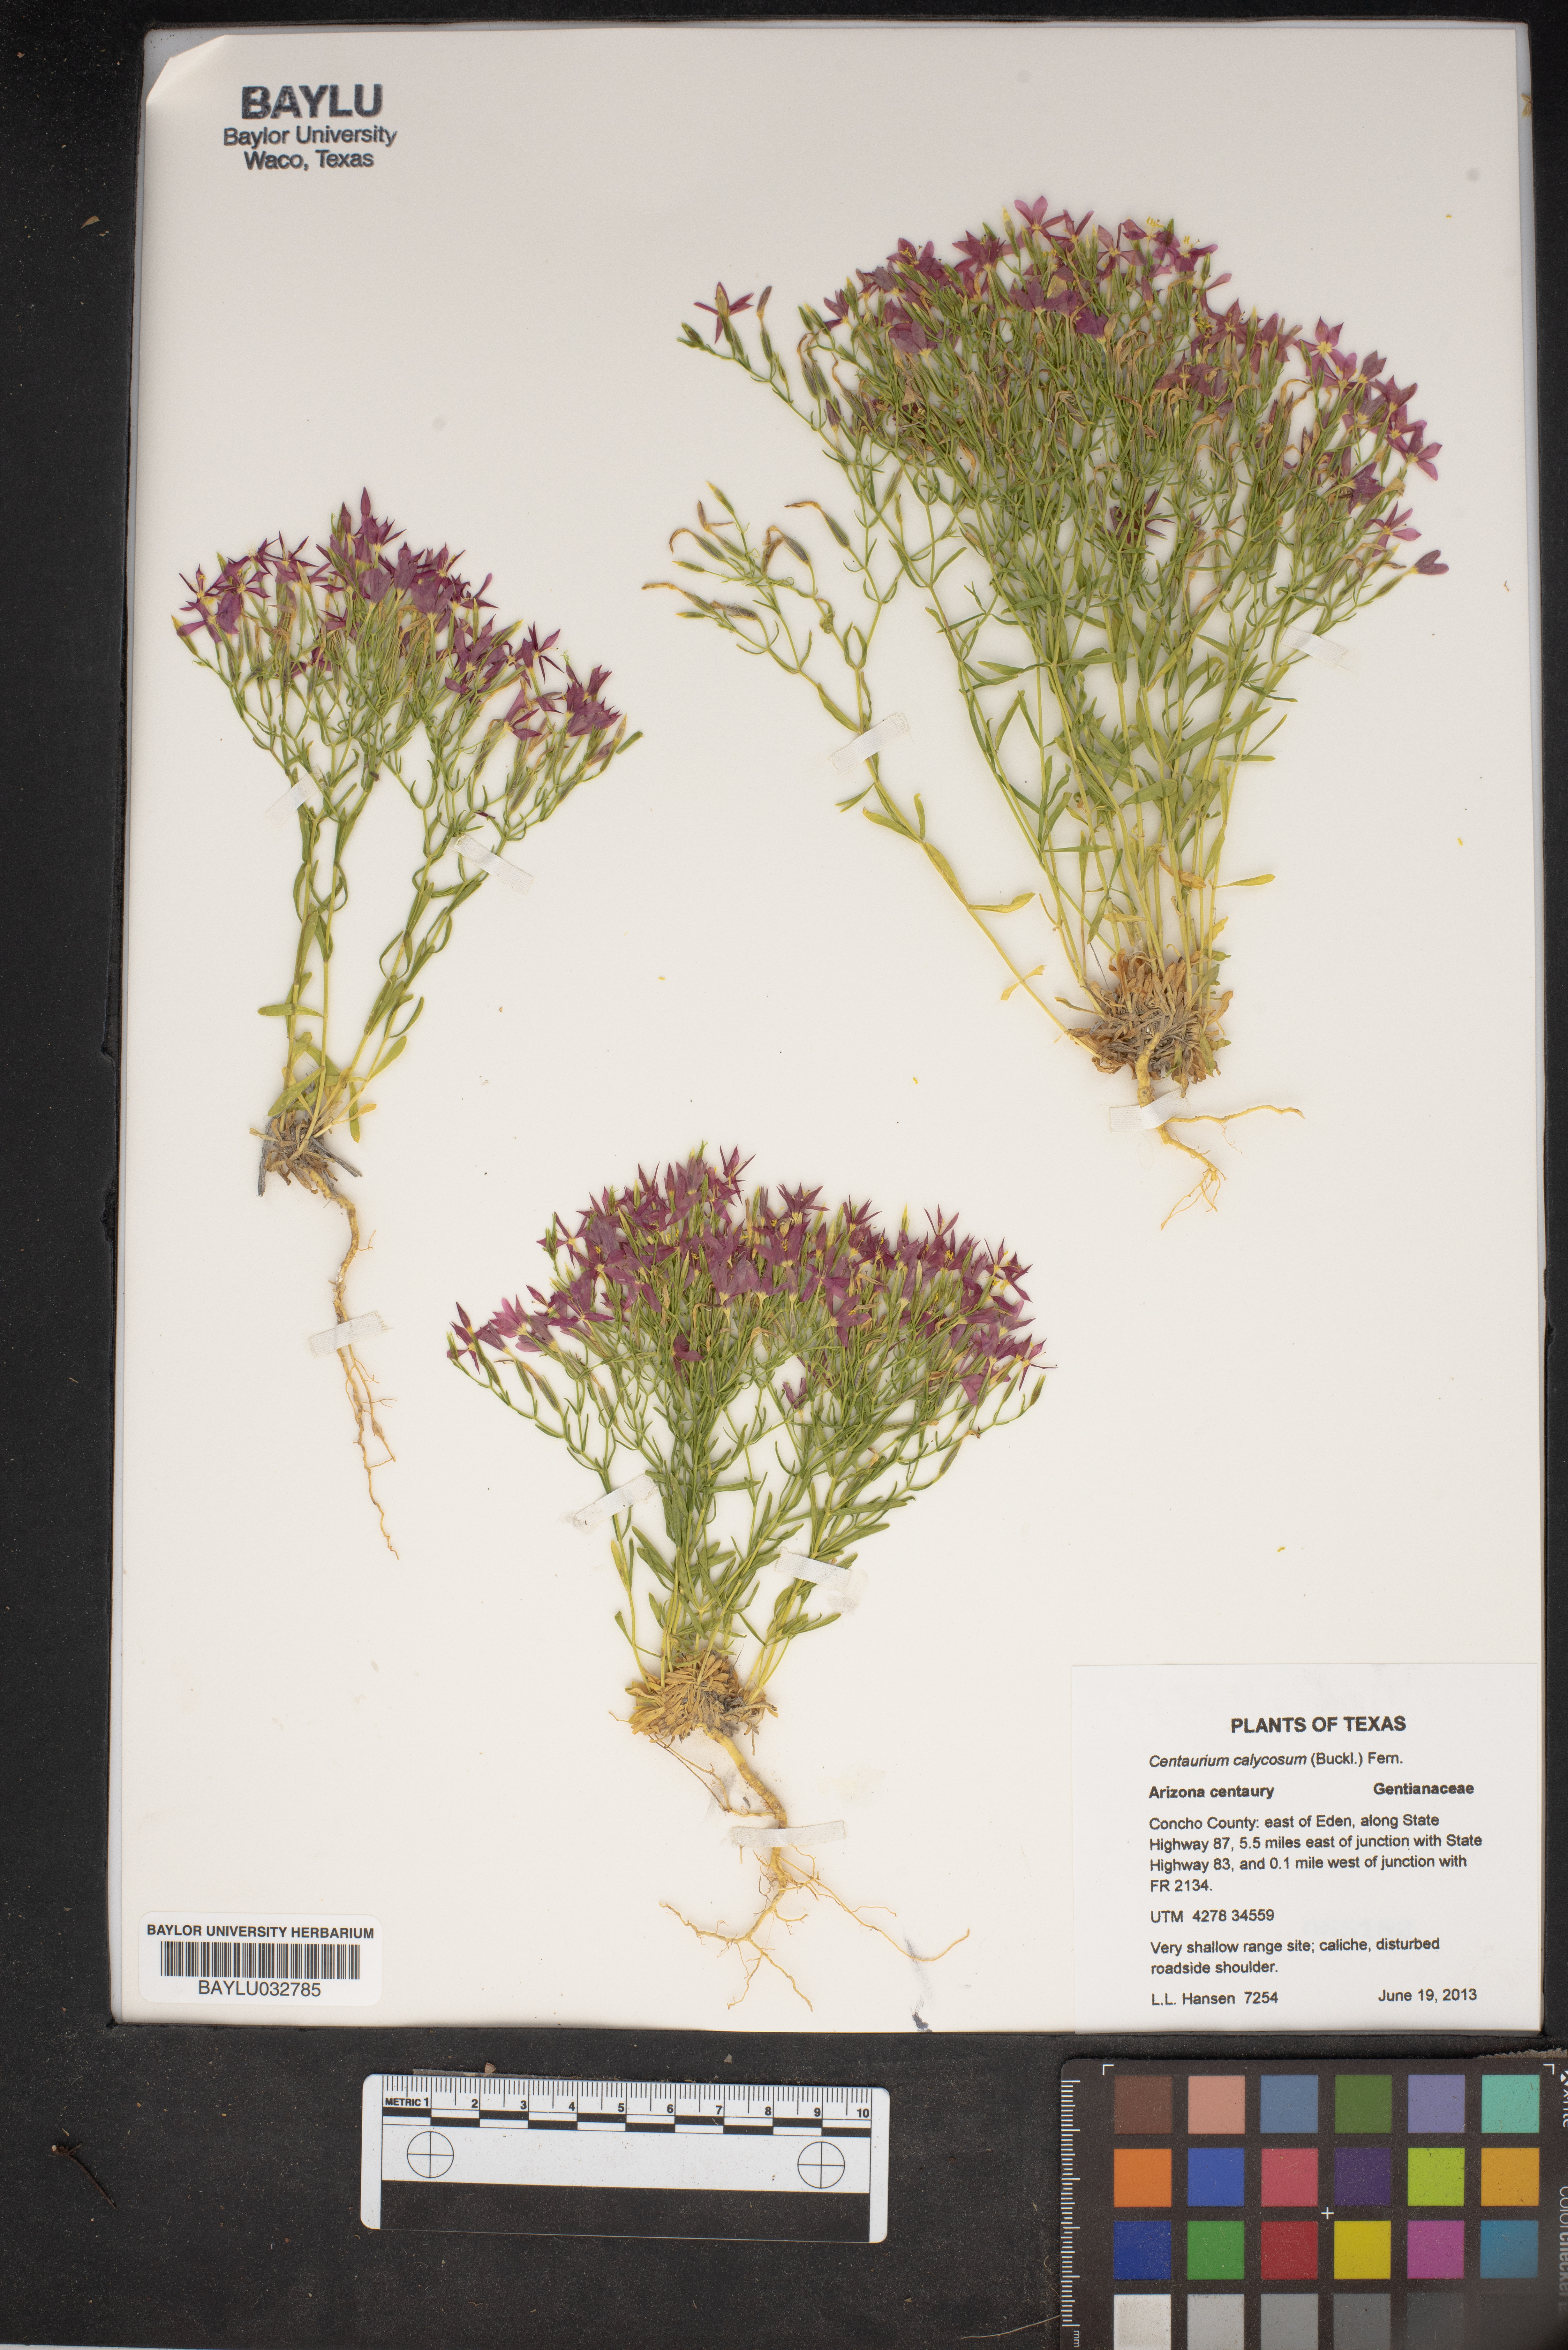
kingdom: Plantae
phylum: Tracheophyta
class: Magnoliopsida
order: Gentianales
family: Gentianaceae
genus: Zeltnera
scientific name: Zeltnera calycosa
